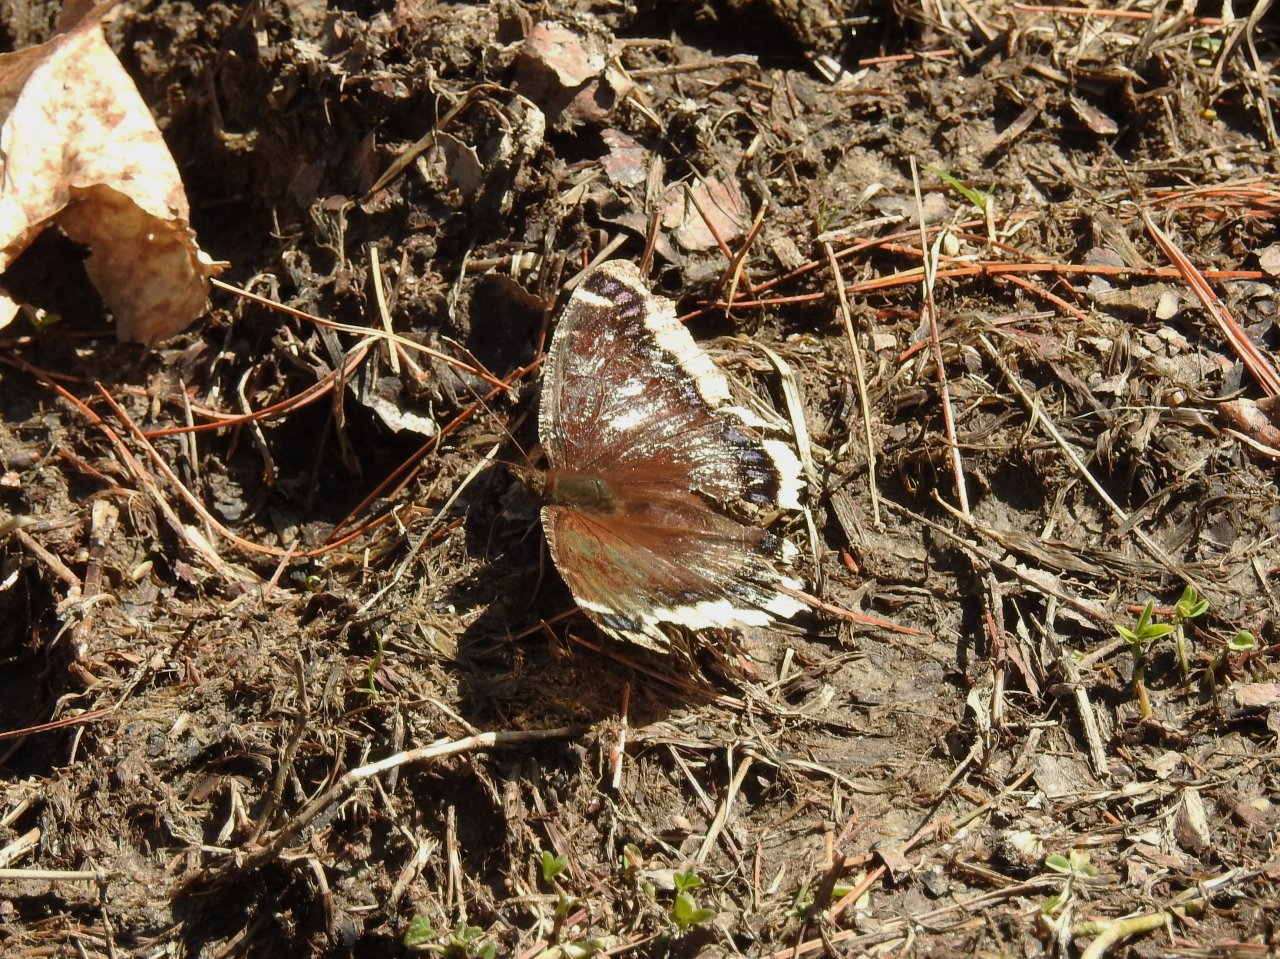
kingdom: Animalia
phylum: Arthropoda
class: Insecta
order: Lepidoptera
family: Nymphalidae
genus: Nymphalis
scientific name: Nymphalis antiopa
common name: Mourning Cloak
